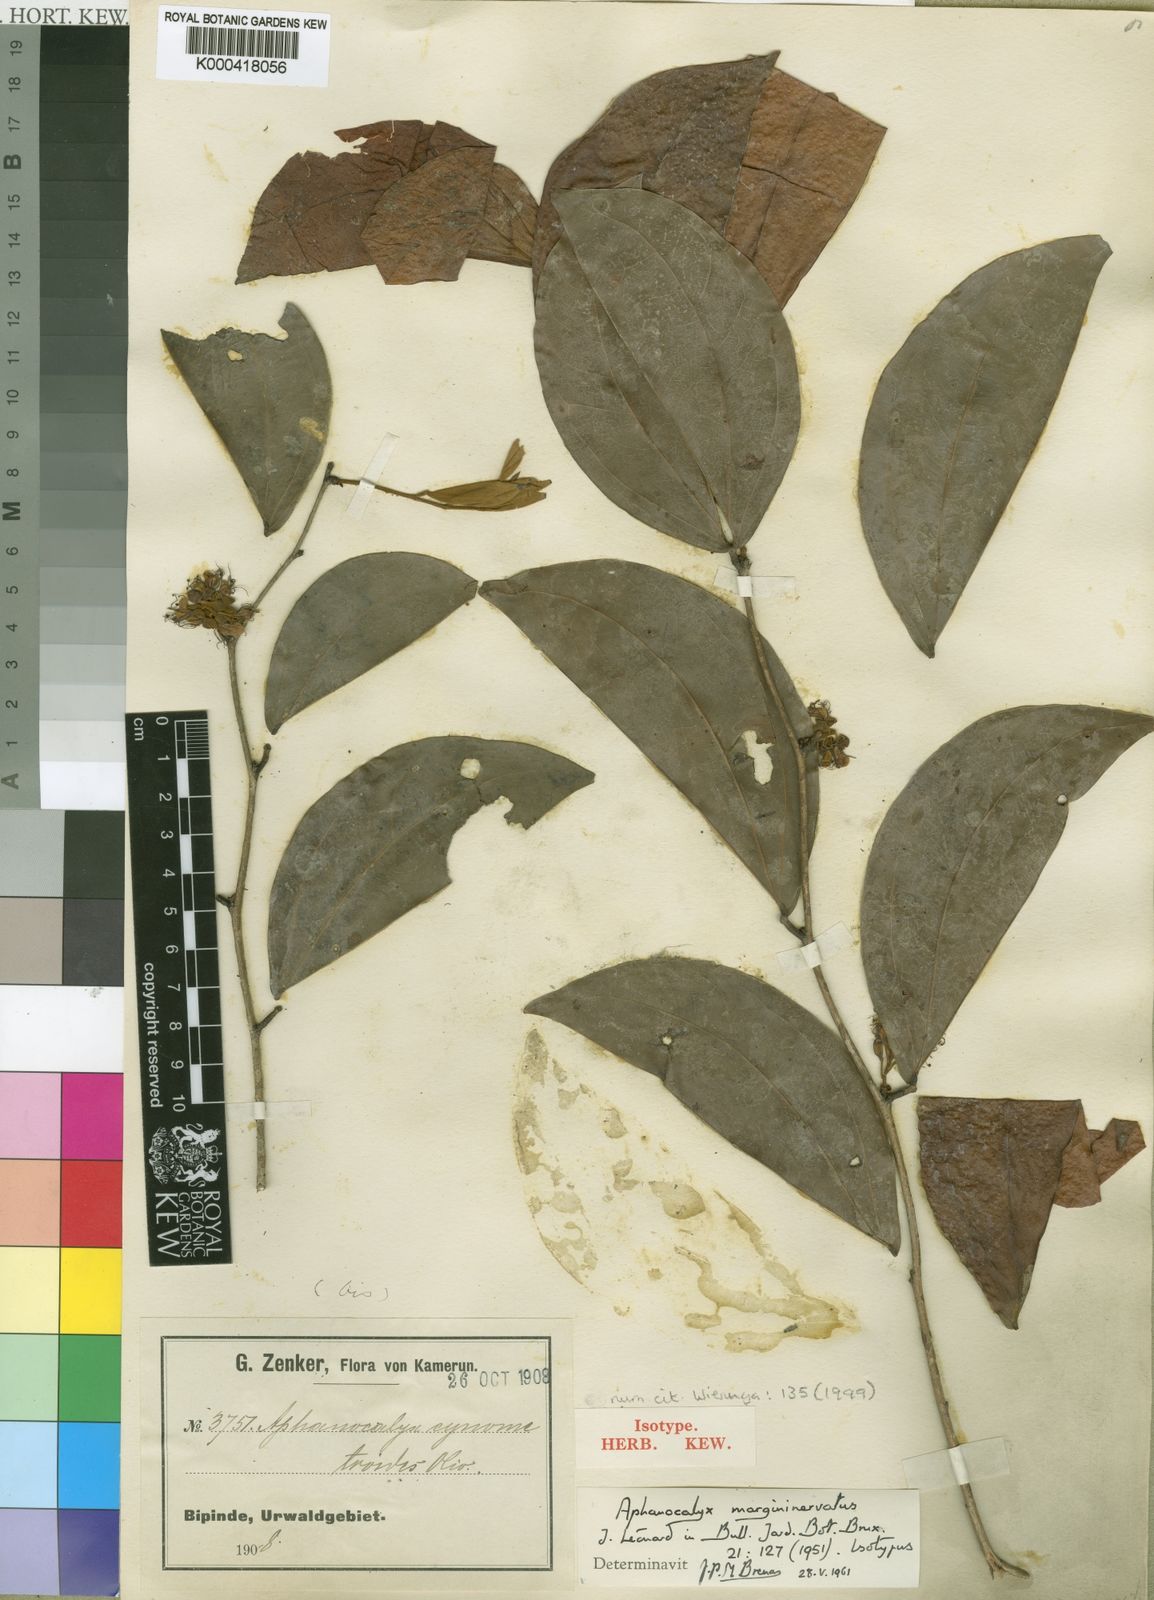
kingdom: Plantae
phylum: Tracheophyta
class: Magnoliopsida
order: Fabales
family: Fabaceae
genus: Aphanocalyx
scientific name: Aphanocalyx
